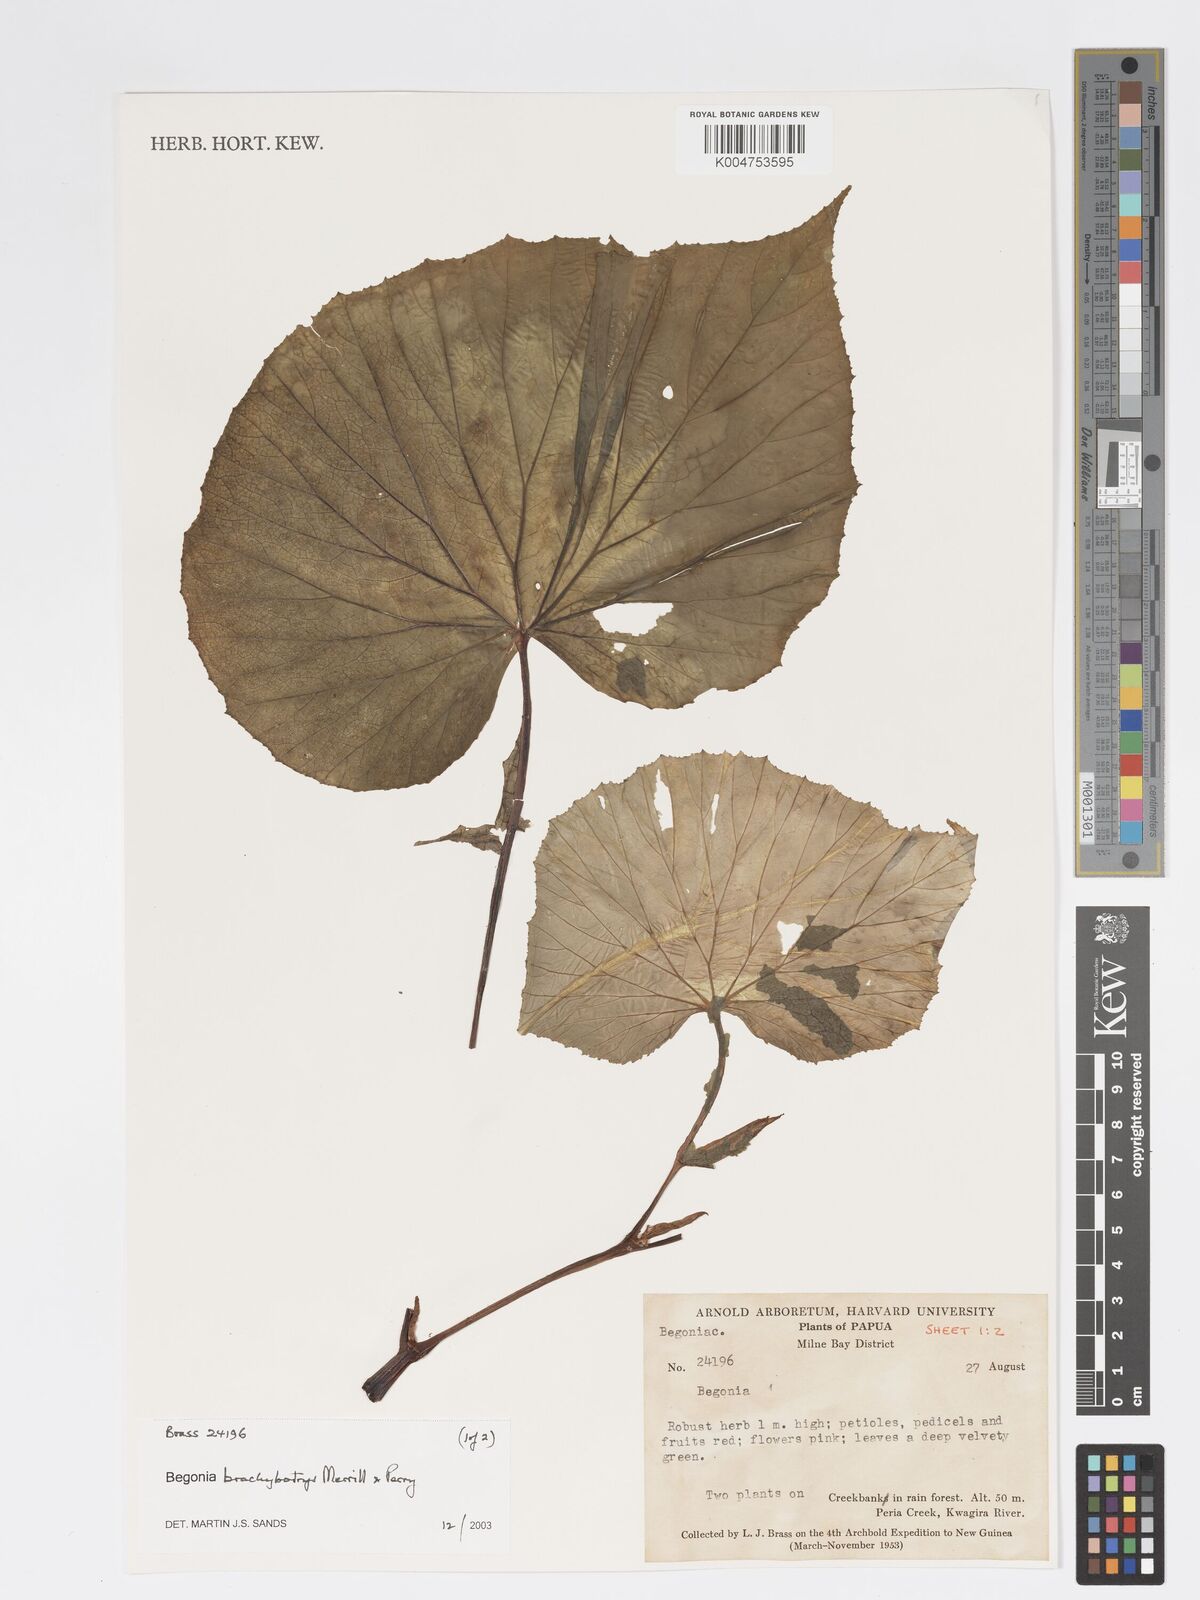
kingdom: Plantae
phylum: Tracheophyta
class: Magnoliopsida
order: Cucurbitales
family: Begoniaceae
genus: Begonia
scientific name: Begonia brachybotrys
